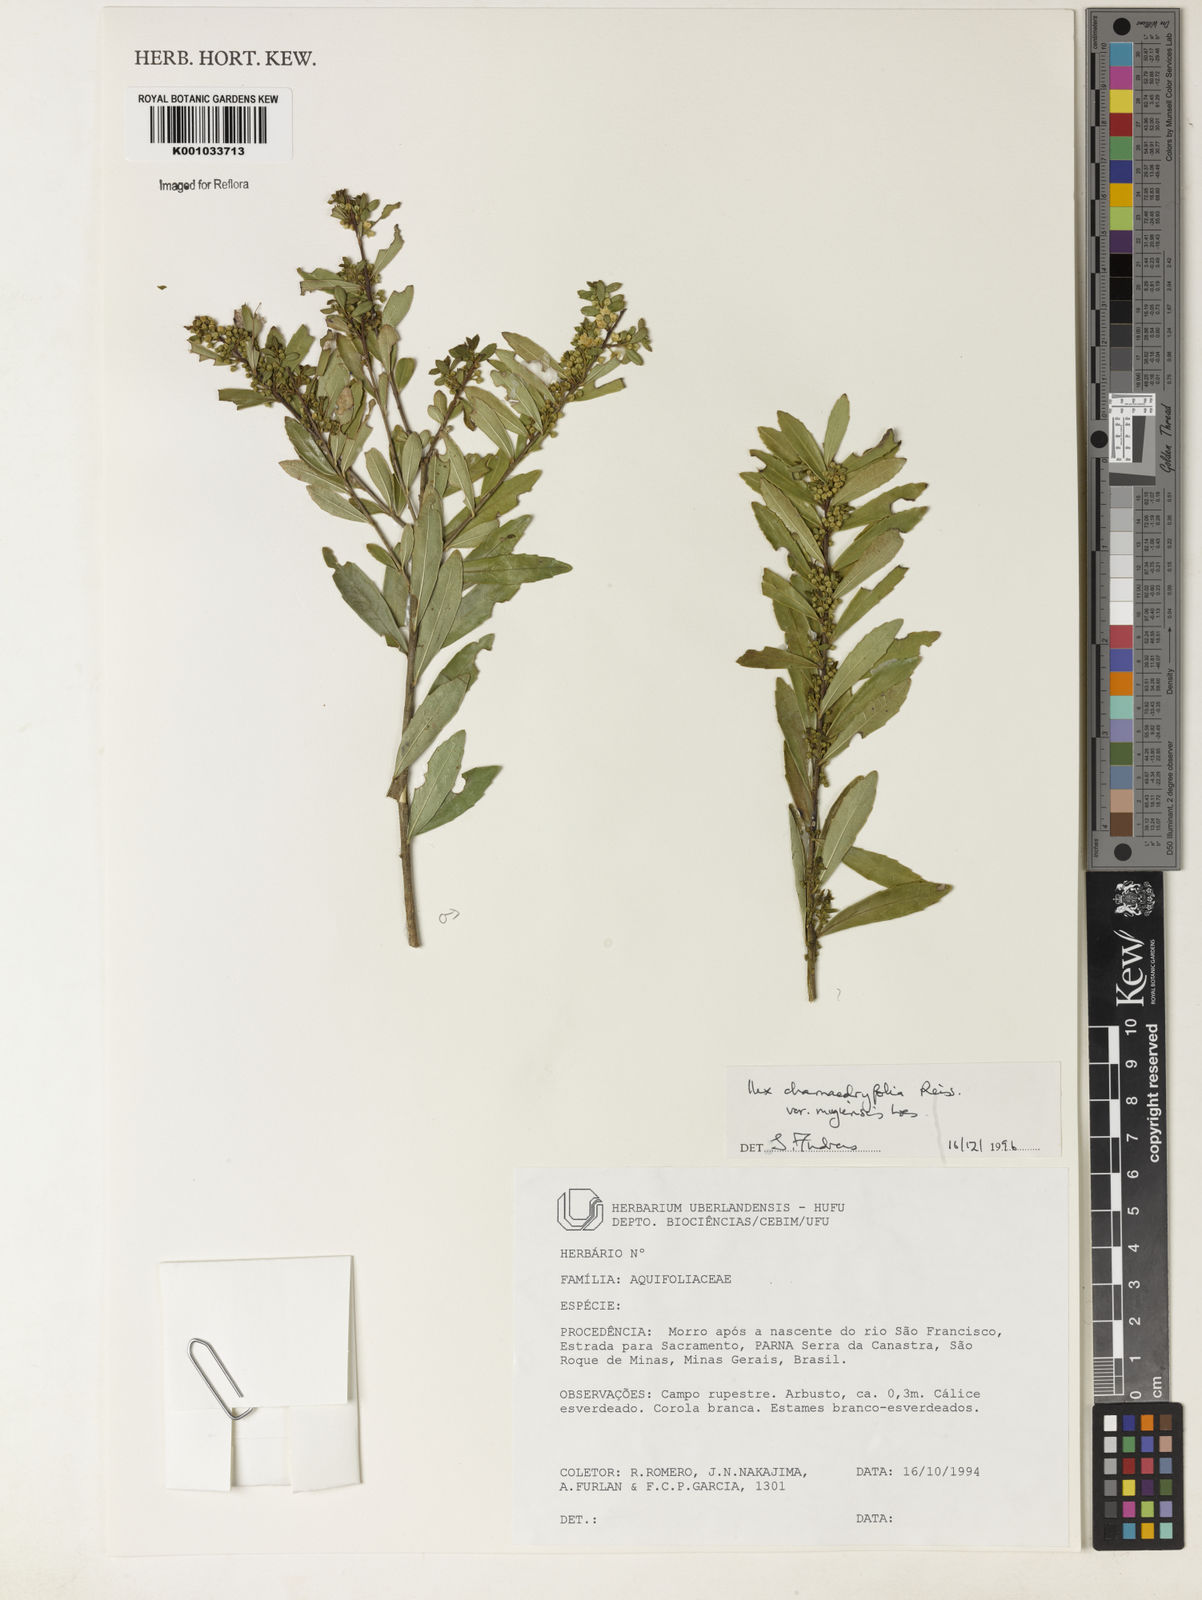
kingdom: Plantae
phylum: Tracheophyta
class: Magnoliopsida
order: Aquifoliales
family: Aquifoliaceae
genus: Ilex
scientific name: Ilex chamaedryfolia
